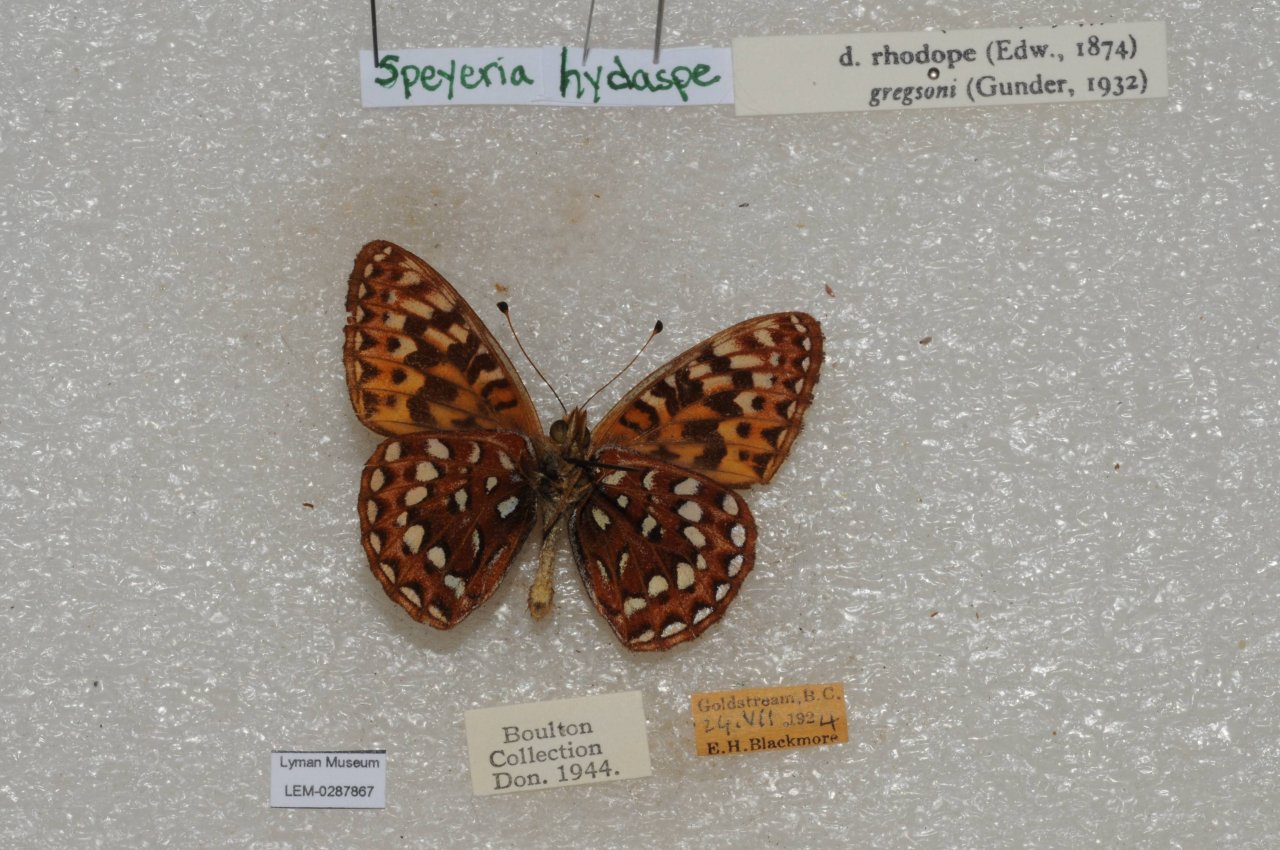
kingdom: Animalia
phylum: Arthropoda
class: Insecta
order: Lepidoptera
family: Nymphalidae
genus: Speyeria
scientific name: Speyeria hydaspe
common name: Hydaspe Fritillary
